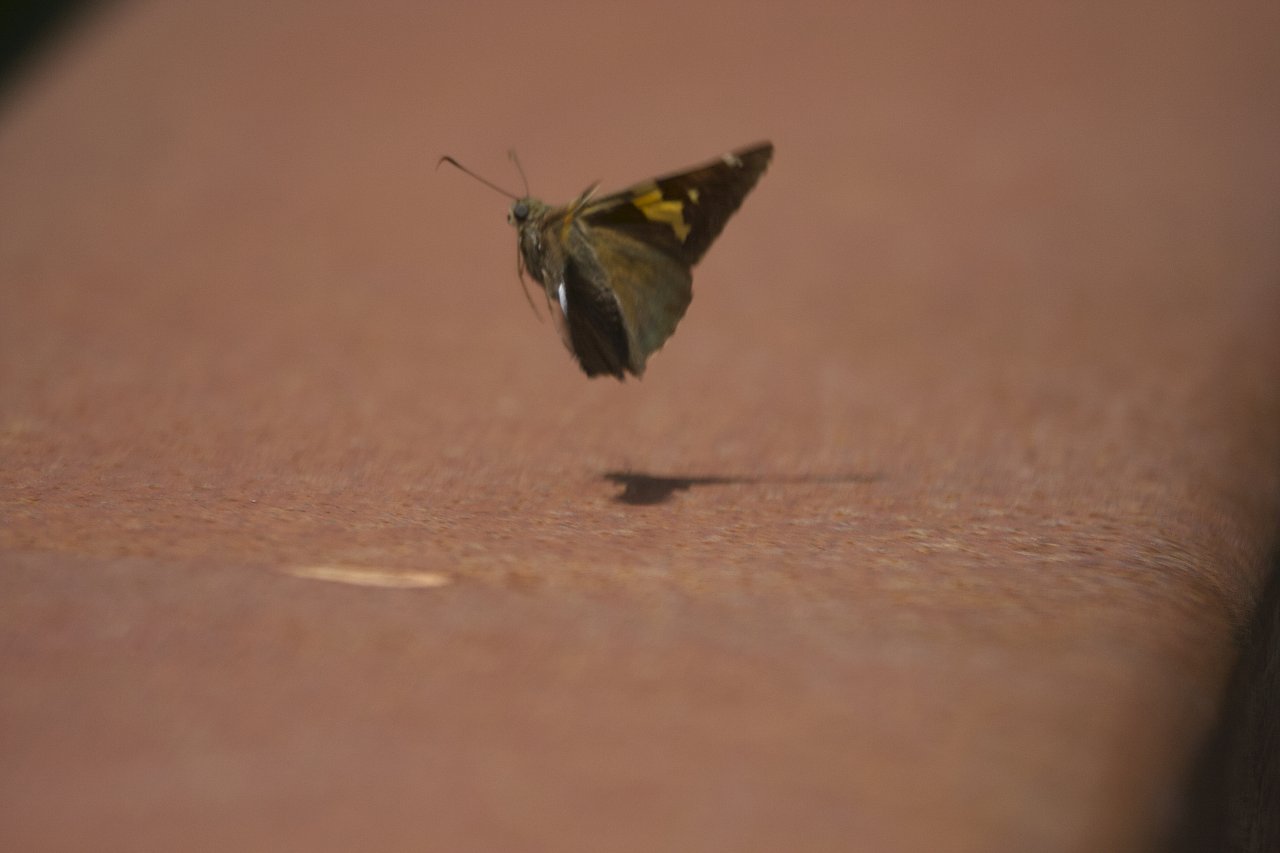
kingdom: Animalia
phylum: Arthropoda
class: Insecta
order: Lepidoptera
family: Hesperiidae
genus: Epargyreus
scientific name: Epargyreus clarus
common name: Silver-spotted Skipper
